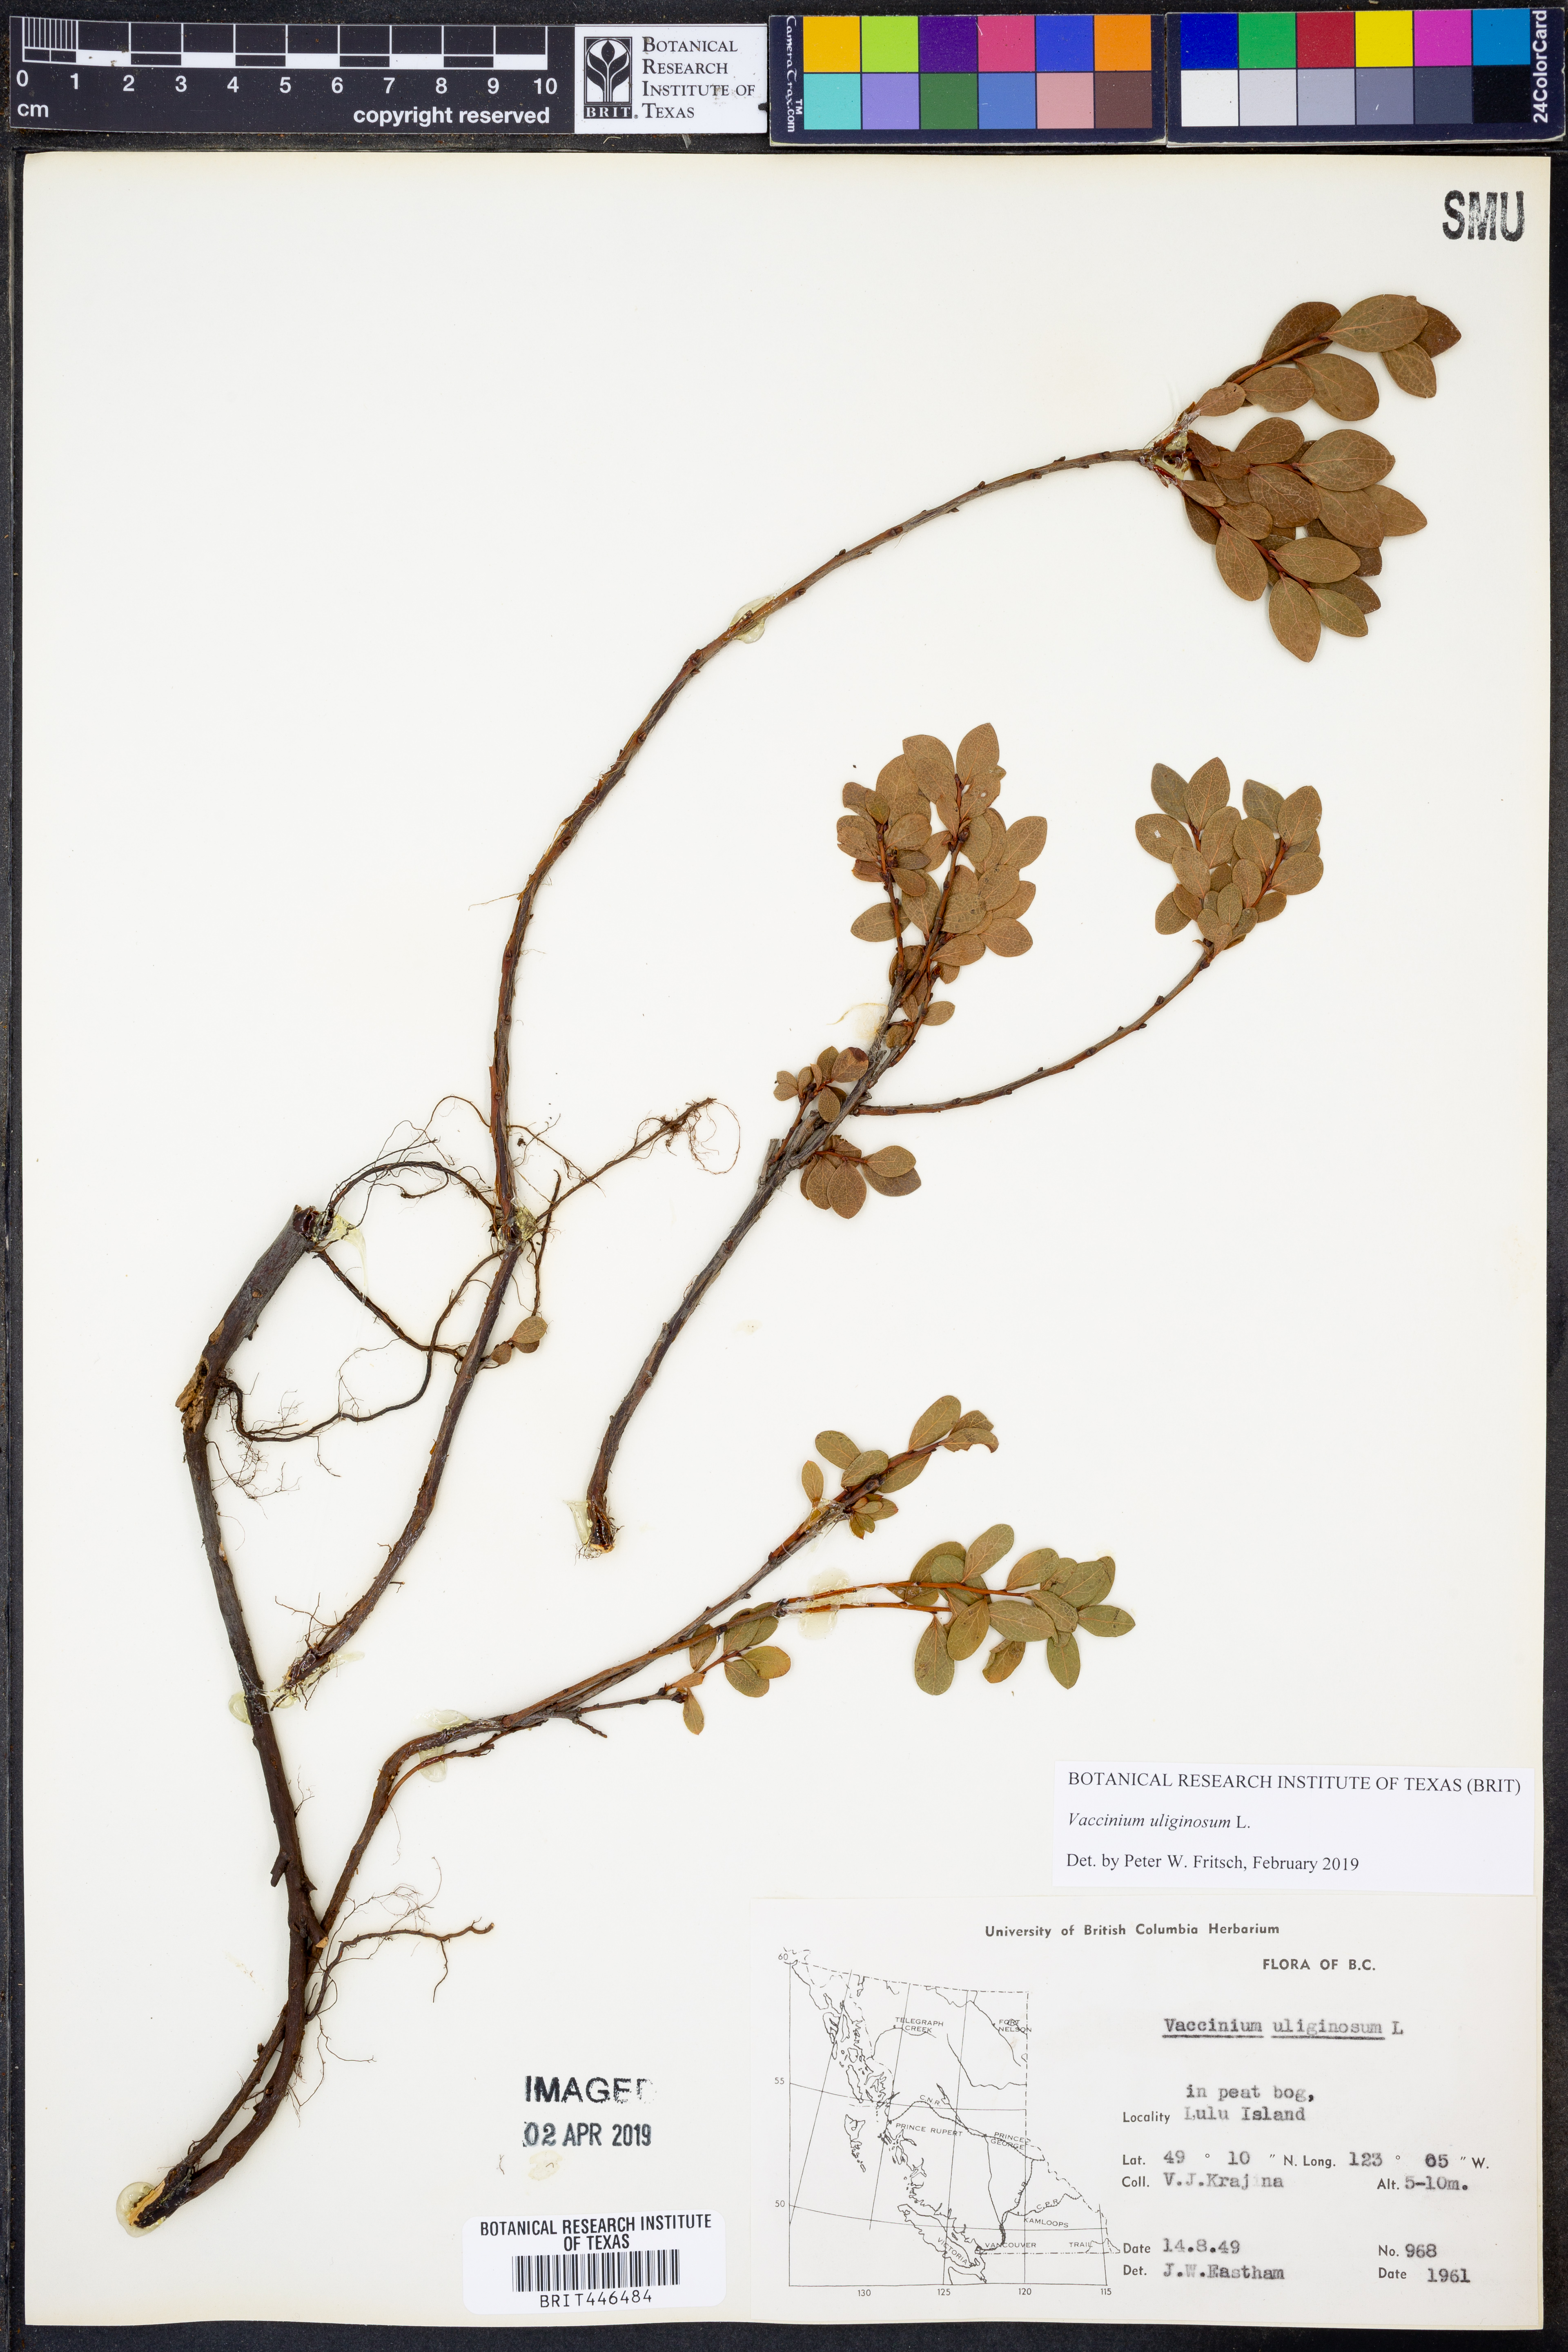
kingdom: Plantae
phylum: Tracheophyta
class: Magnoliopsida
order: Ericales
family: Ericaceae
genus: Vaccinium
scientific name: Vaccinium uliginosum
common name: Bog bilberry
